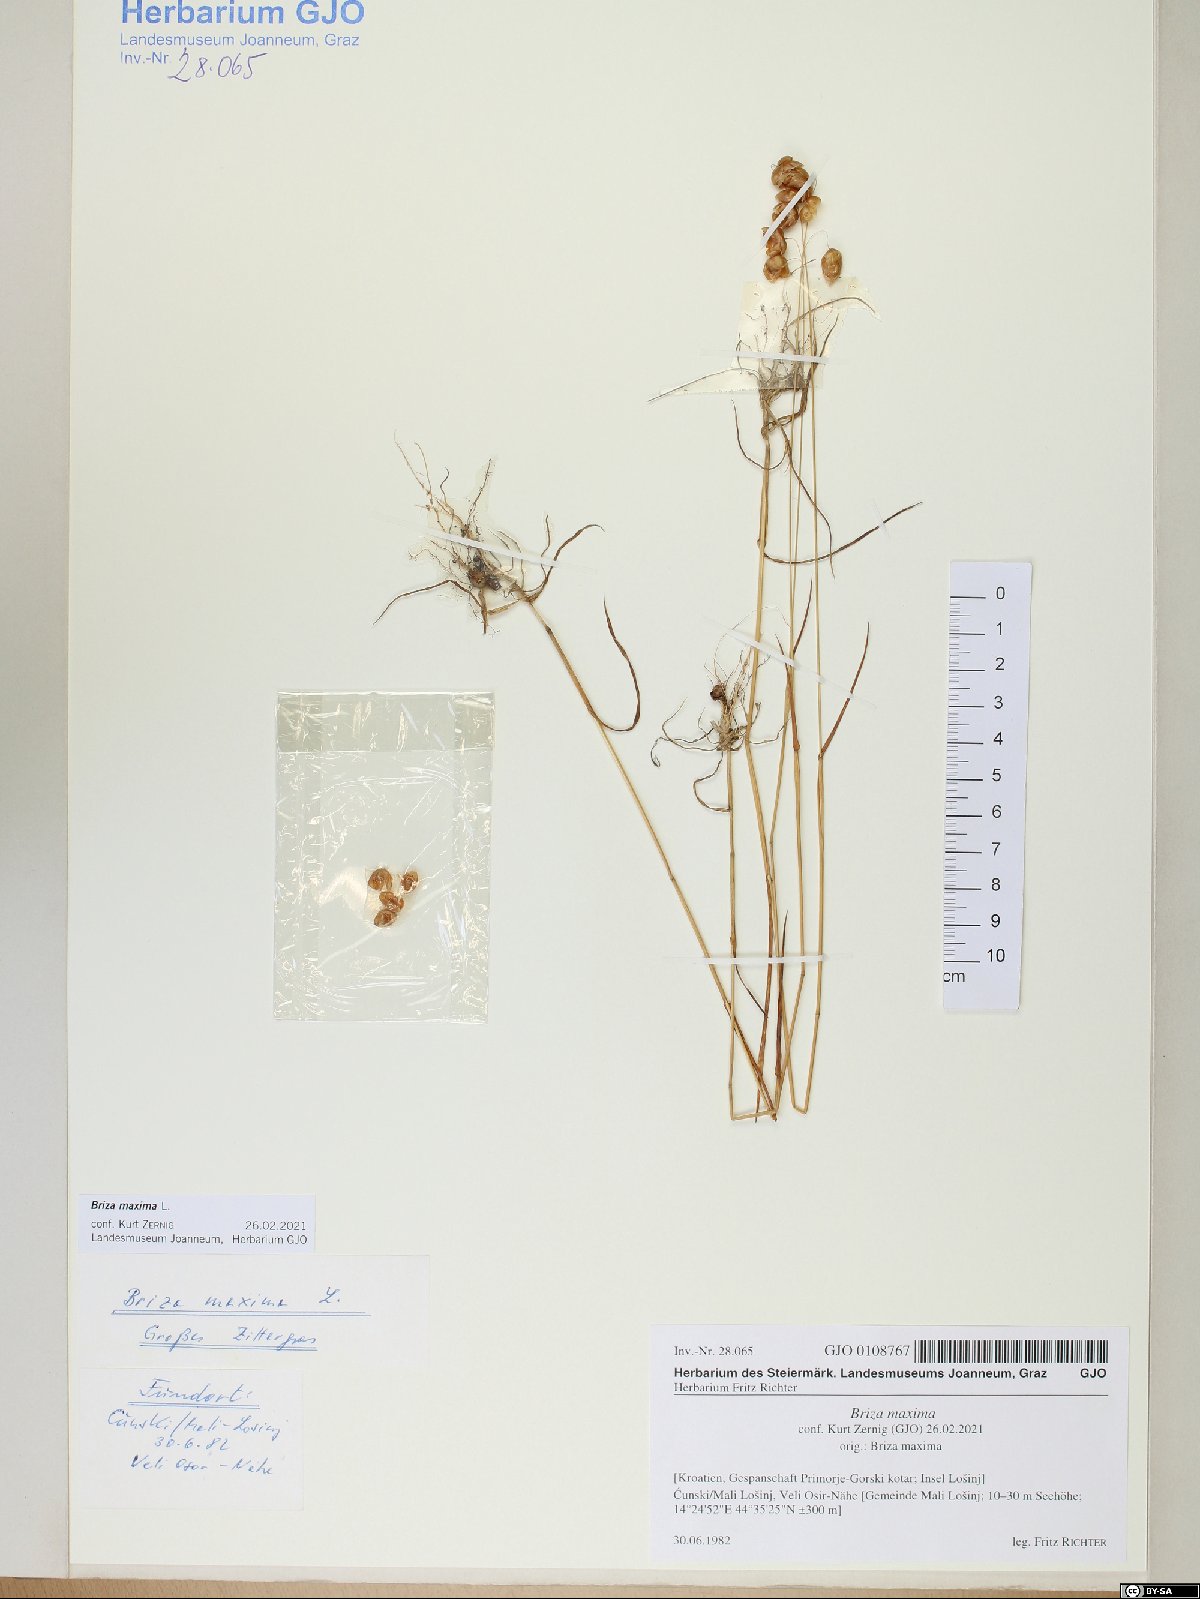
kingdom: Plantae
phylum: Tracheophyta
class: Liliopsida
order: Poales
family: Poaceae
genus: Briza
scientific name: Briza maxima
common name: Big quakinggrass
